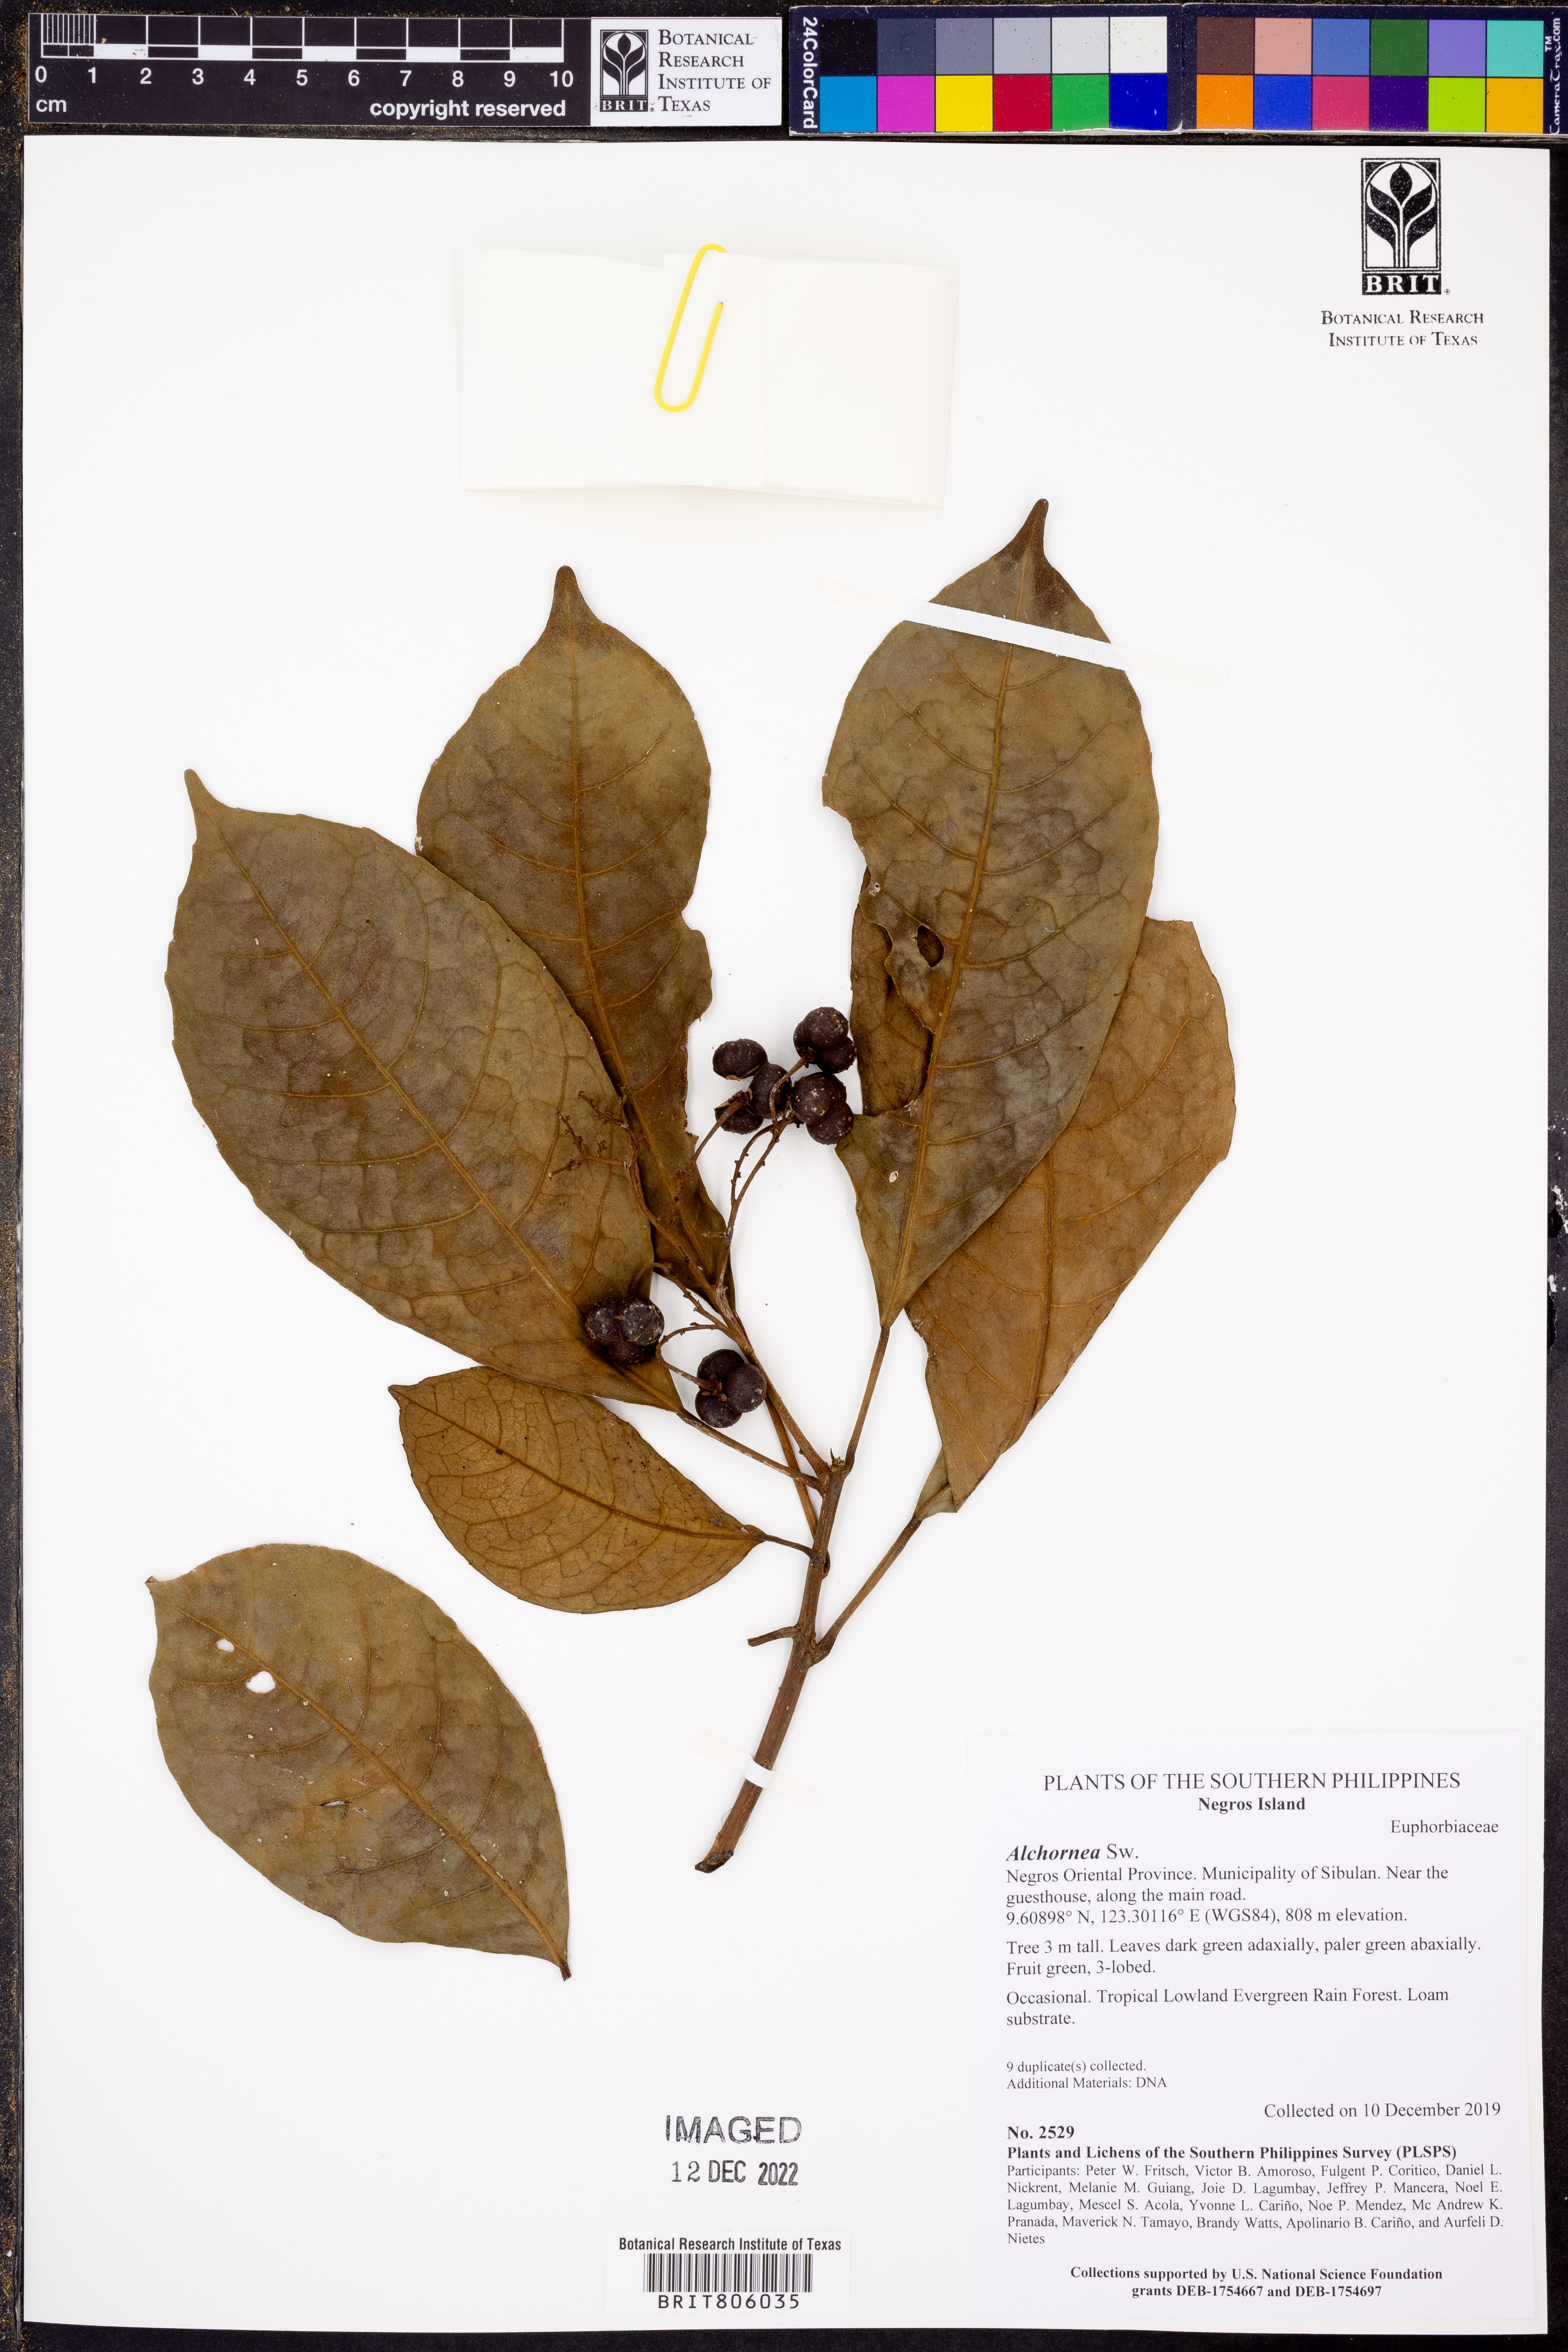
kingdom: Plantae
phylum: Tracheophyta
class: Magnoliopsida
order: Malpighiales
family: Euphorbiaceae
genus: Alchornea
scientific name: Alchornea
